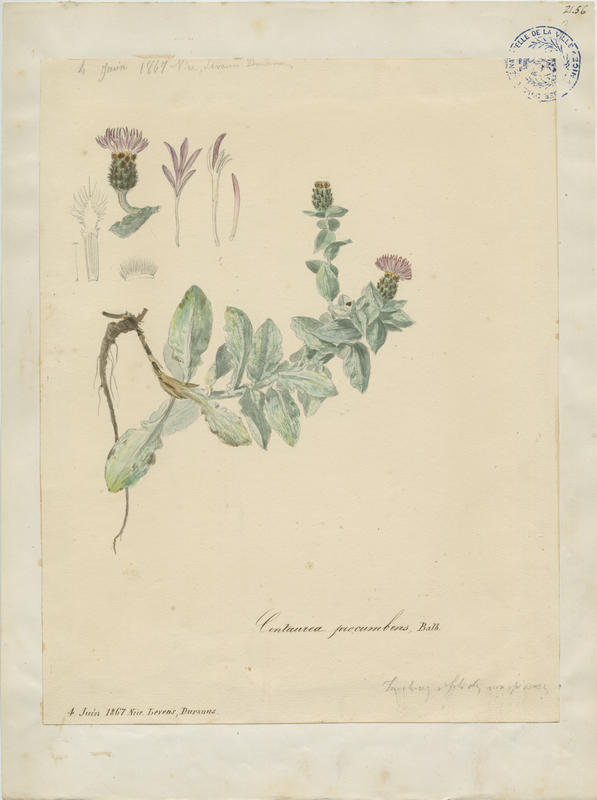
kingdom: Plantae
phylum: Tracheophyta
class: Magnoliopsida
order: Asterales
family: Asteraceae
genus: Centaurea
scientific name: Centaurea jordaniana
